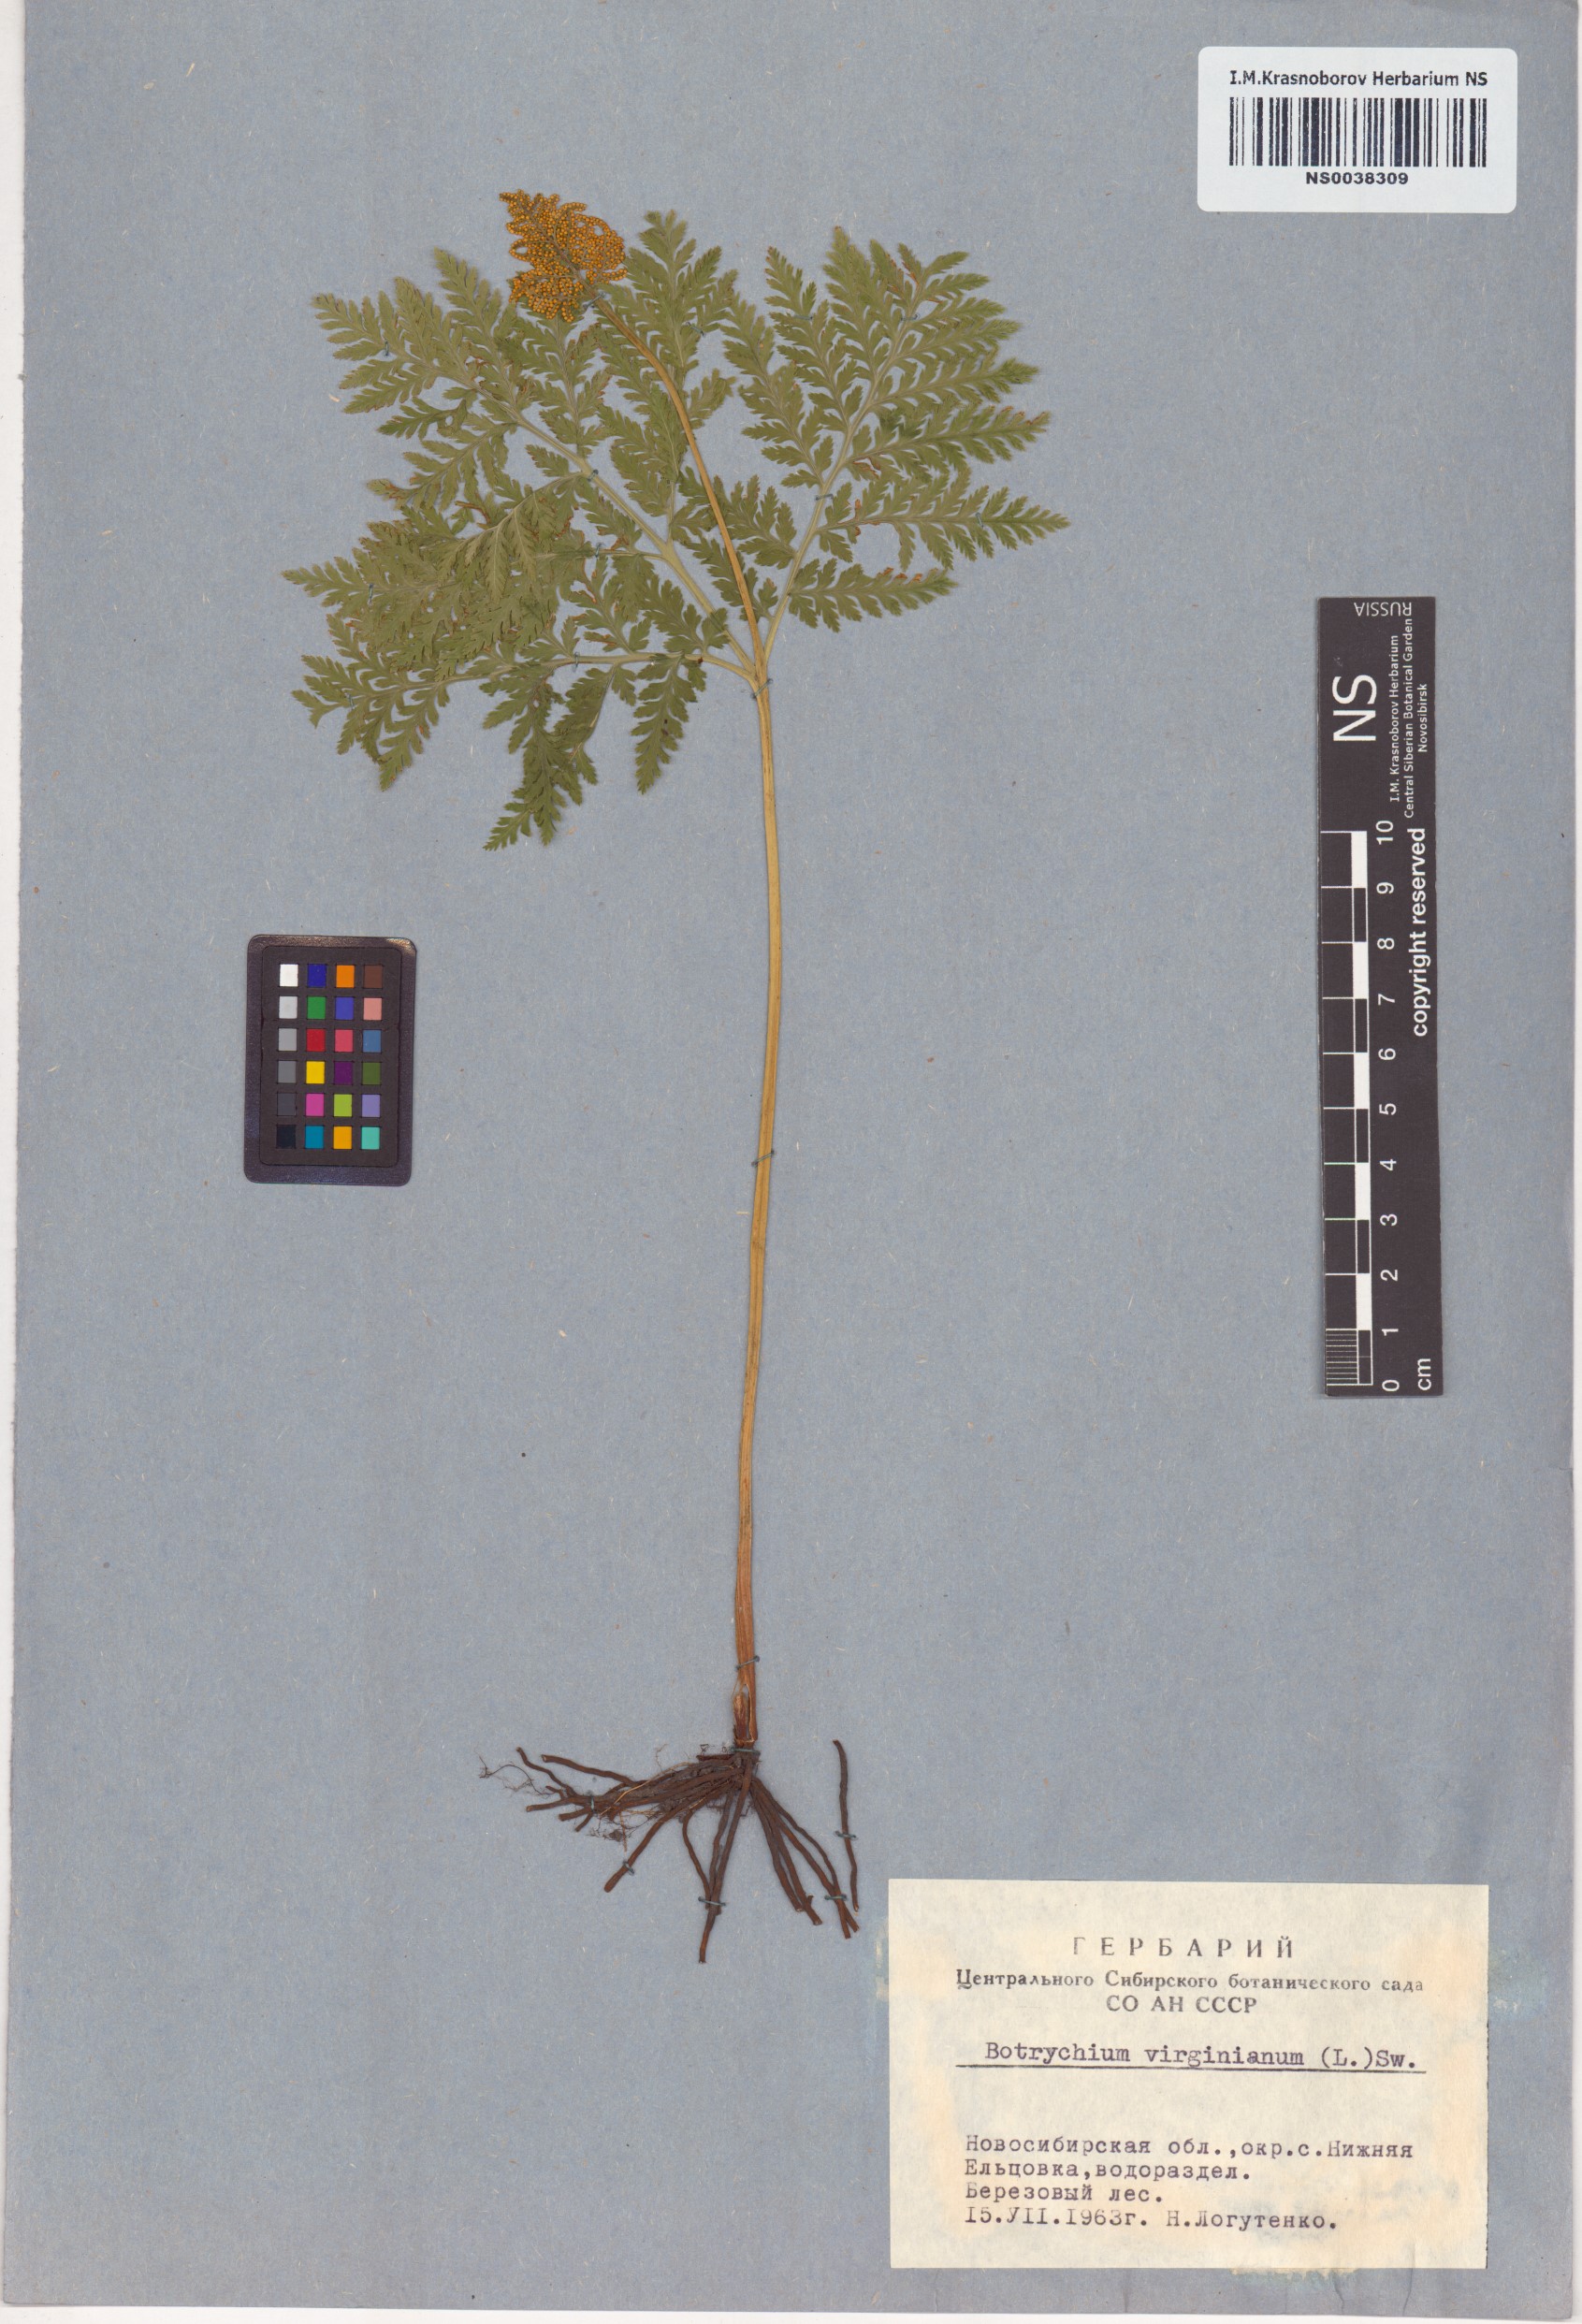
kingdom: Plantae
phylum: Tracheophyta
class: Polypodiopsida
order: Ophioglossales
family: Ophioglossaceae
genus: Botrypus
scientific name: Botrypus virginianus
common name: Common grapefern
